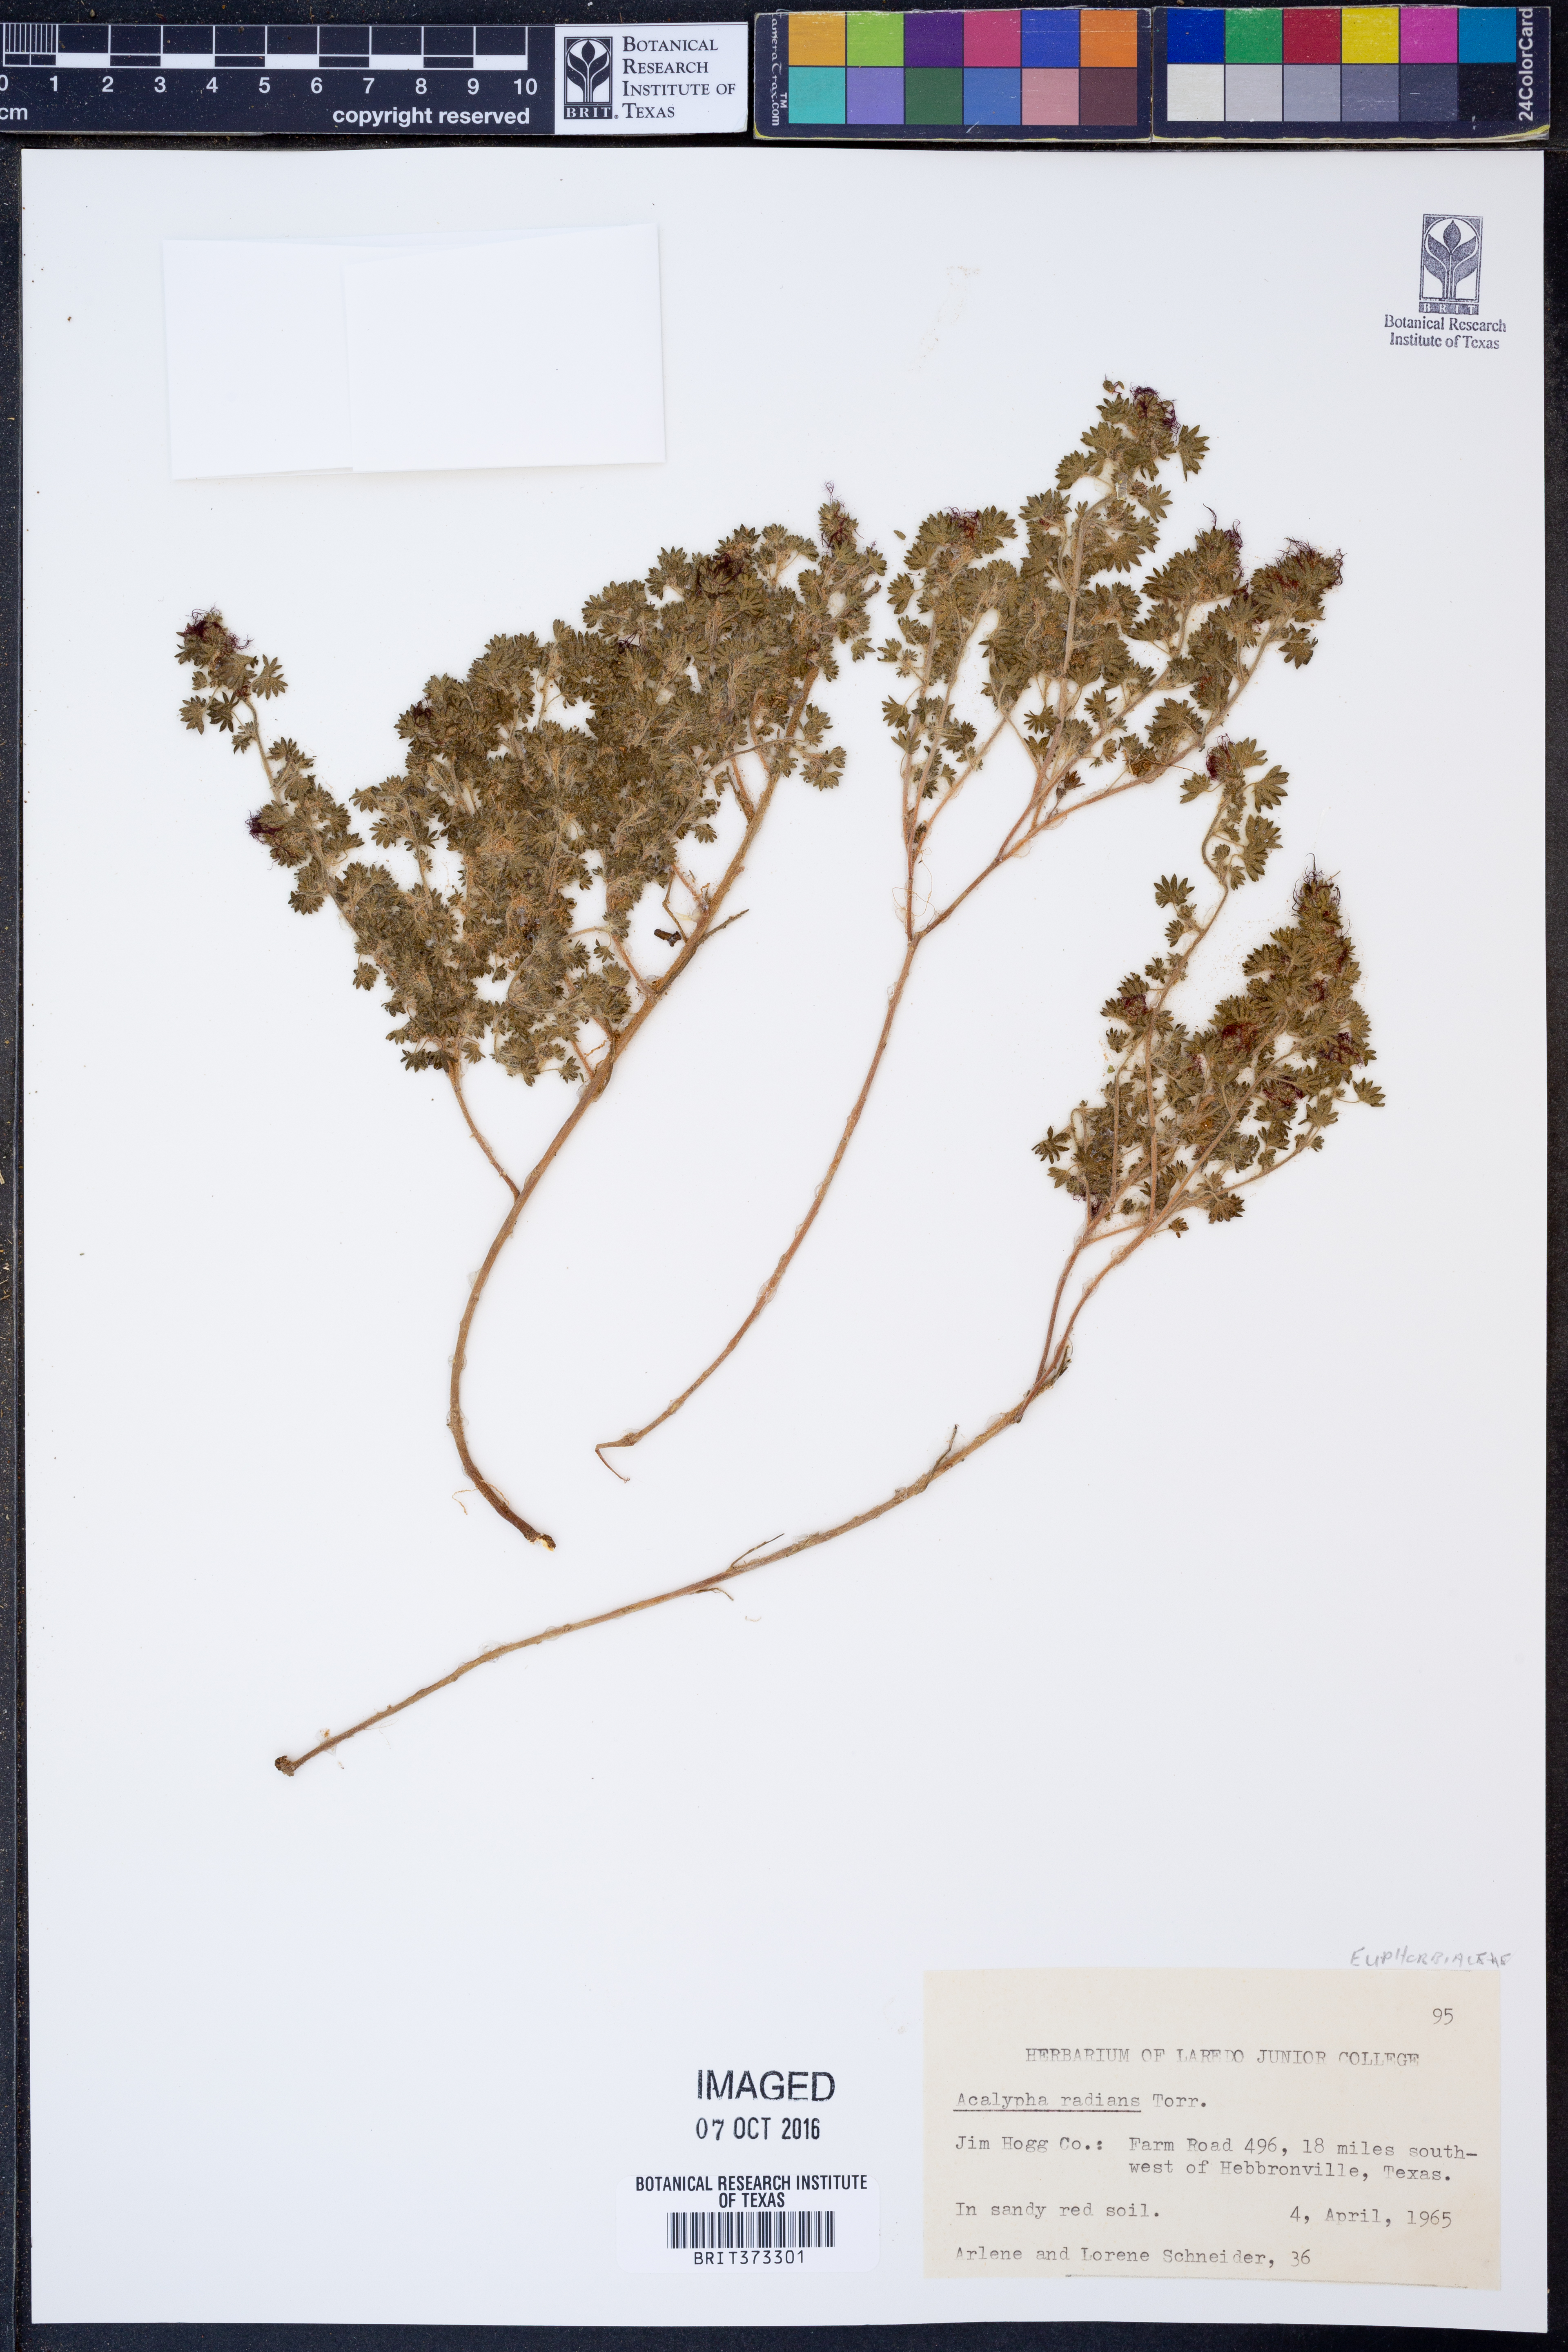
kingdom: Plantae
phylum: Tracheophyta
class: Magnoliopsida
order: Malpighiales
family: Euphorbiaceae
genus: Acalypha
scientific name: Acalypha radians
